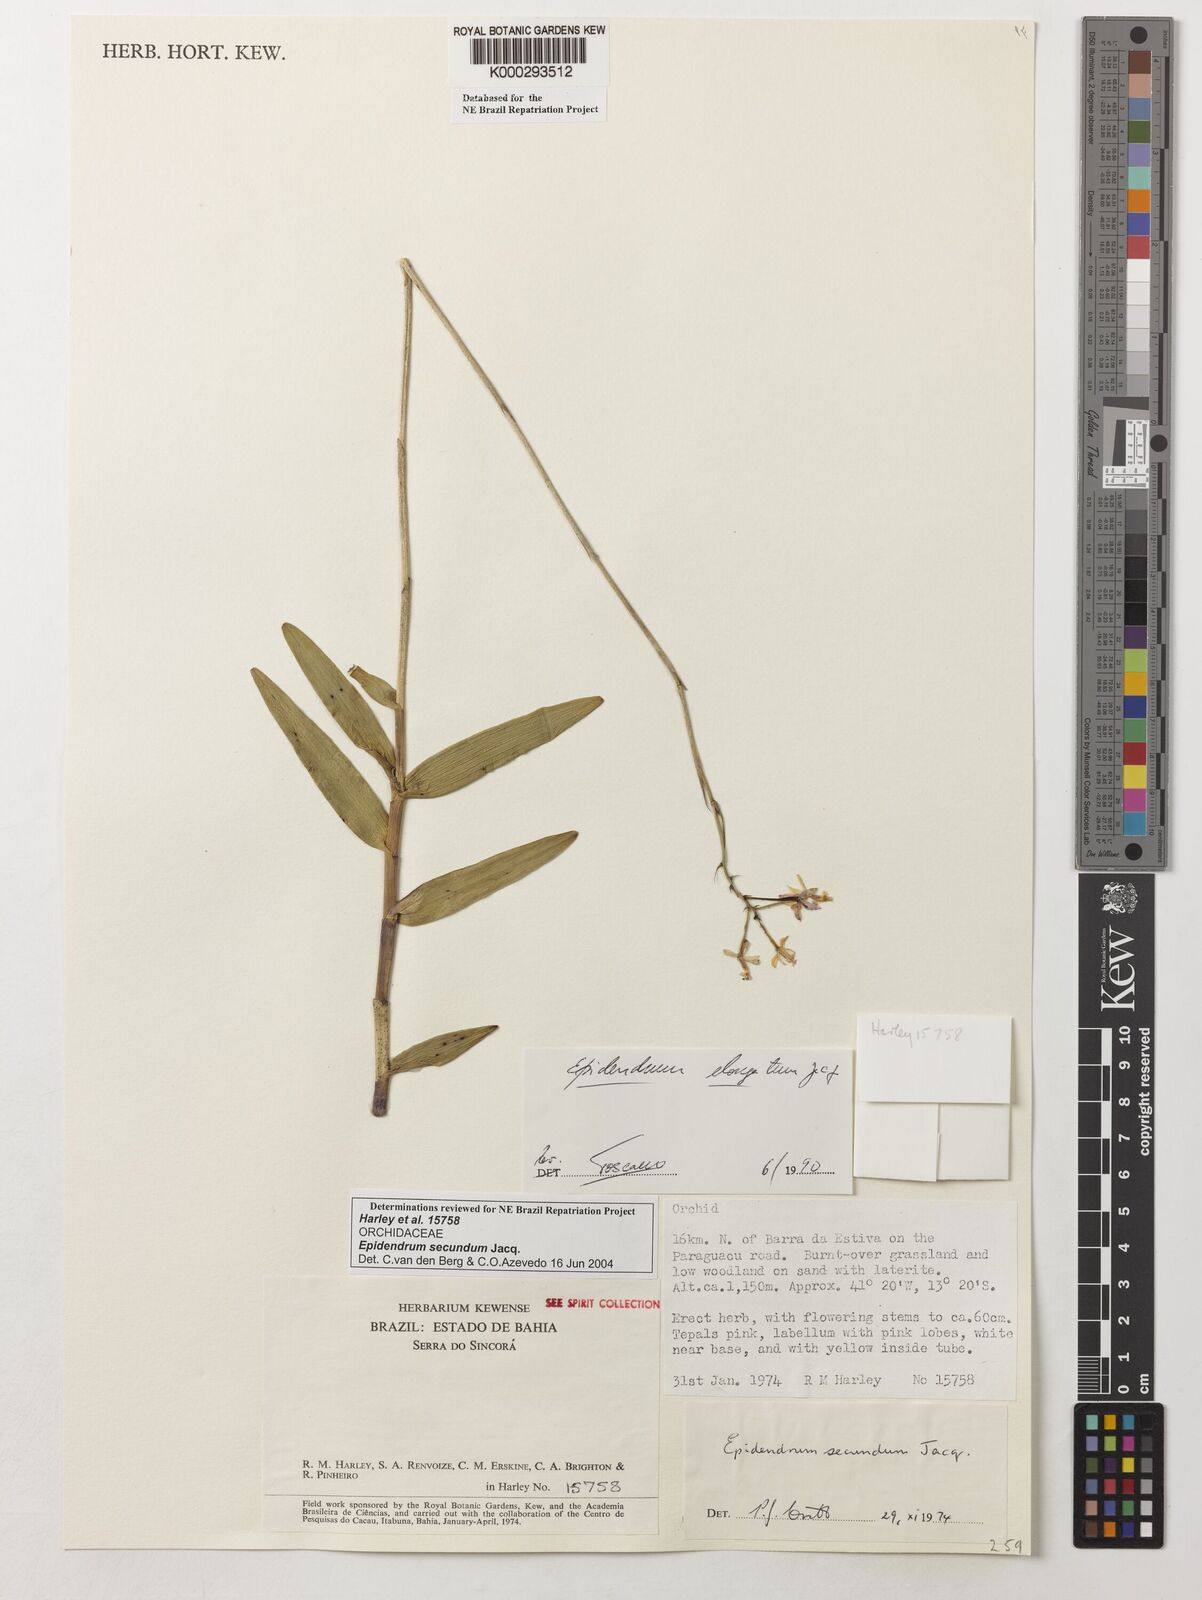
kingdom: Plantae
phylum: Tracheophyta
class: Liliopsida
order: Asparagales
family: Orchidaceae
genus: Epidendrum
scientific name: Epidendrum secundum
